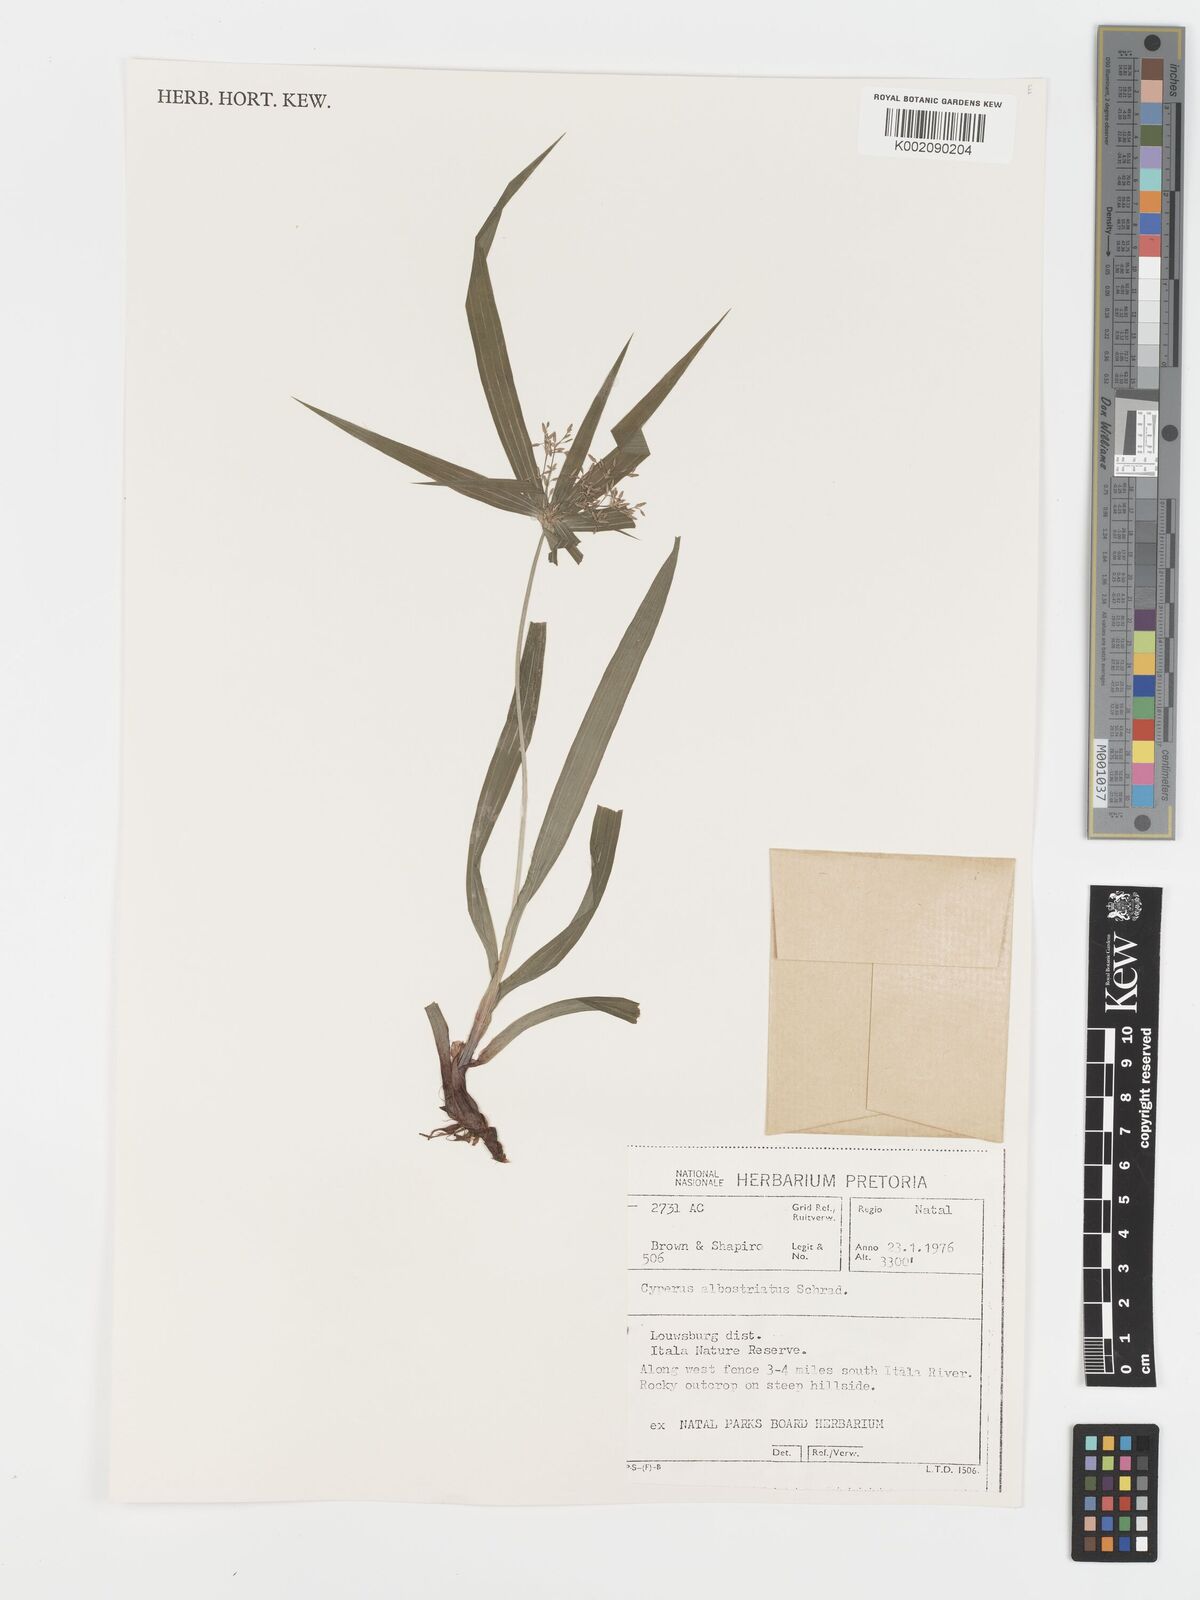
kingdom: Plantae
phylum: Tracheophyta
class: Liliopsida
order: Poales
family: Cyperaceae
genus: Cyperus
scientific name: Cyperus albostriatus
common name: Dwarf umbrella-grass
